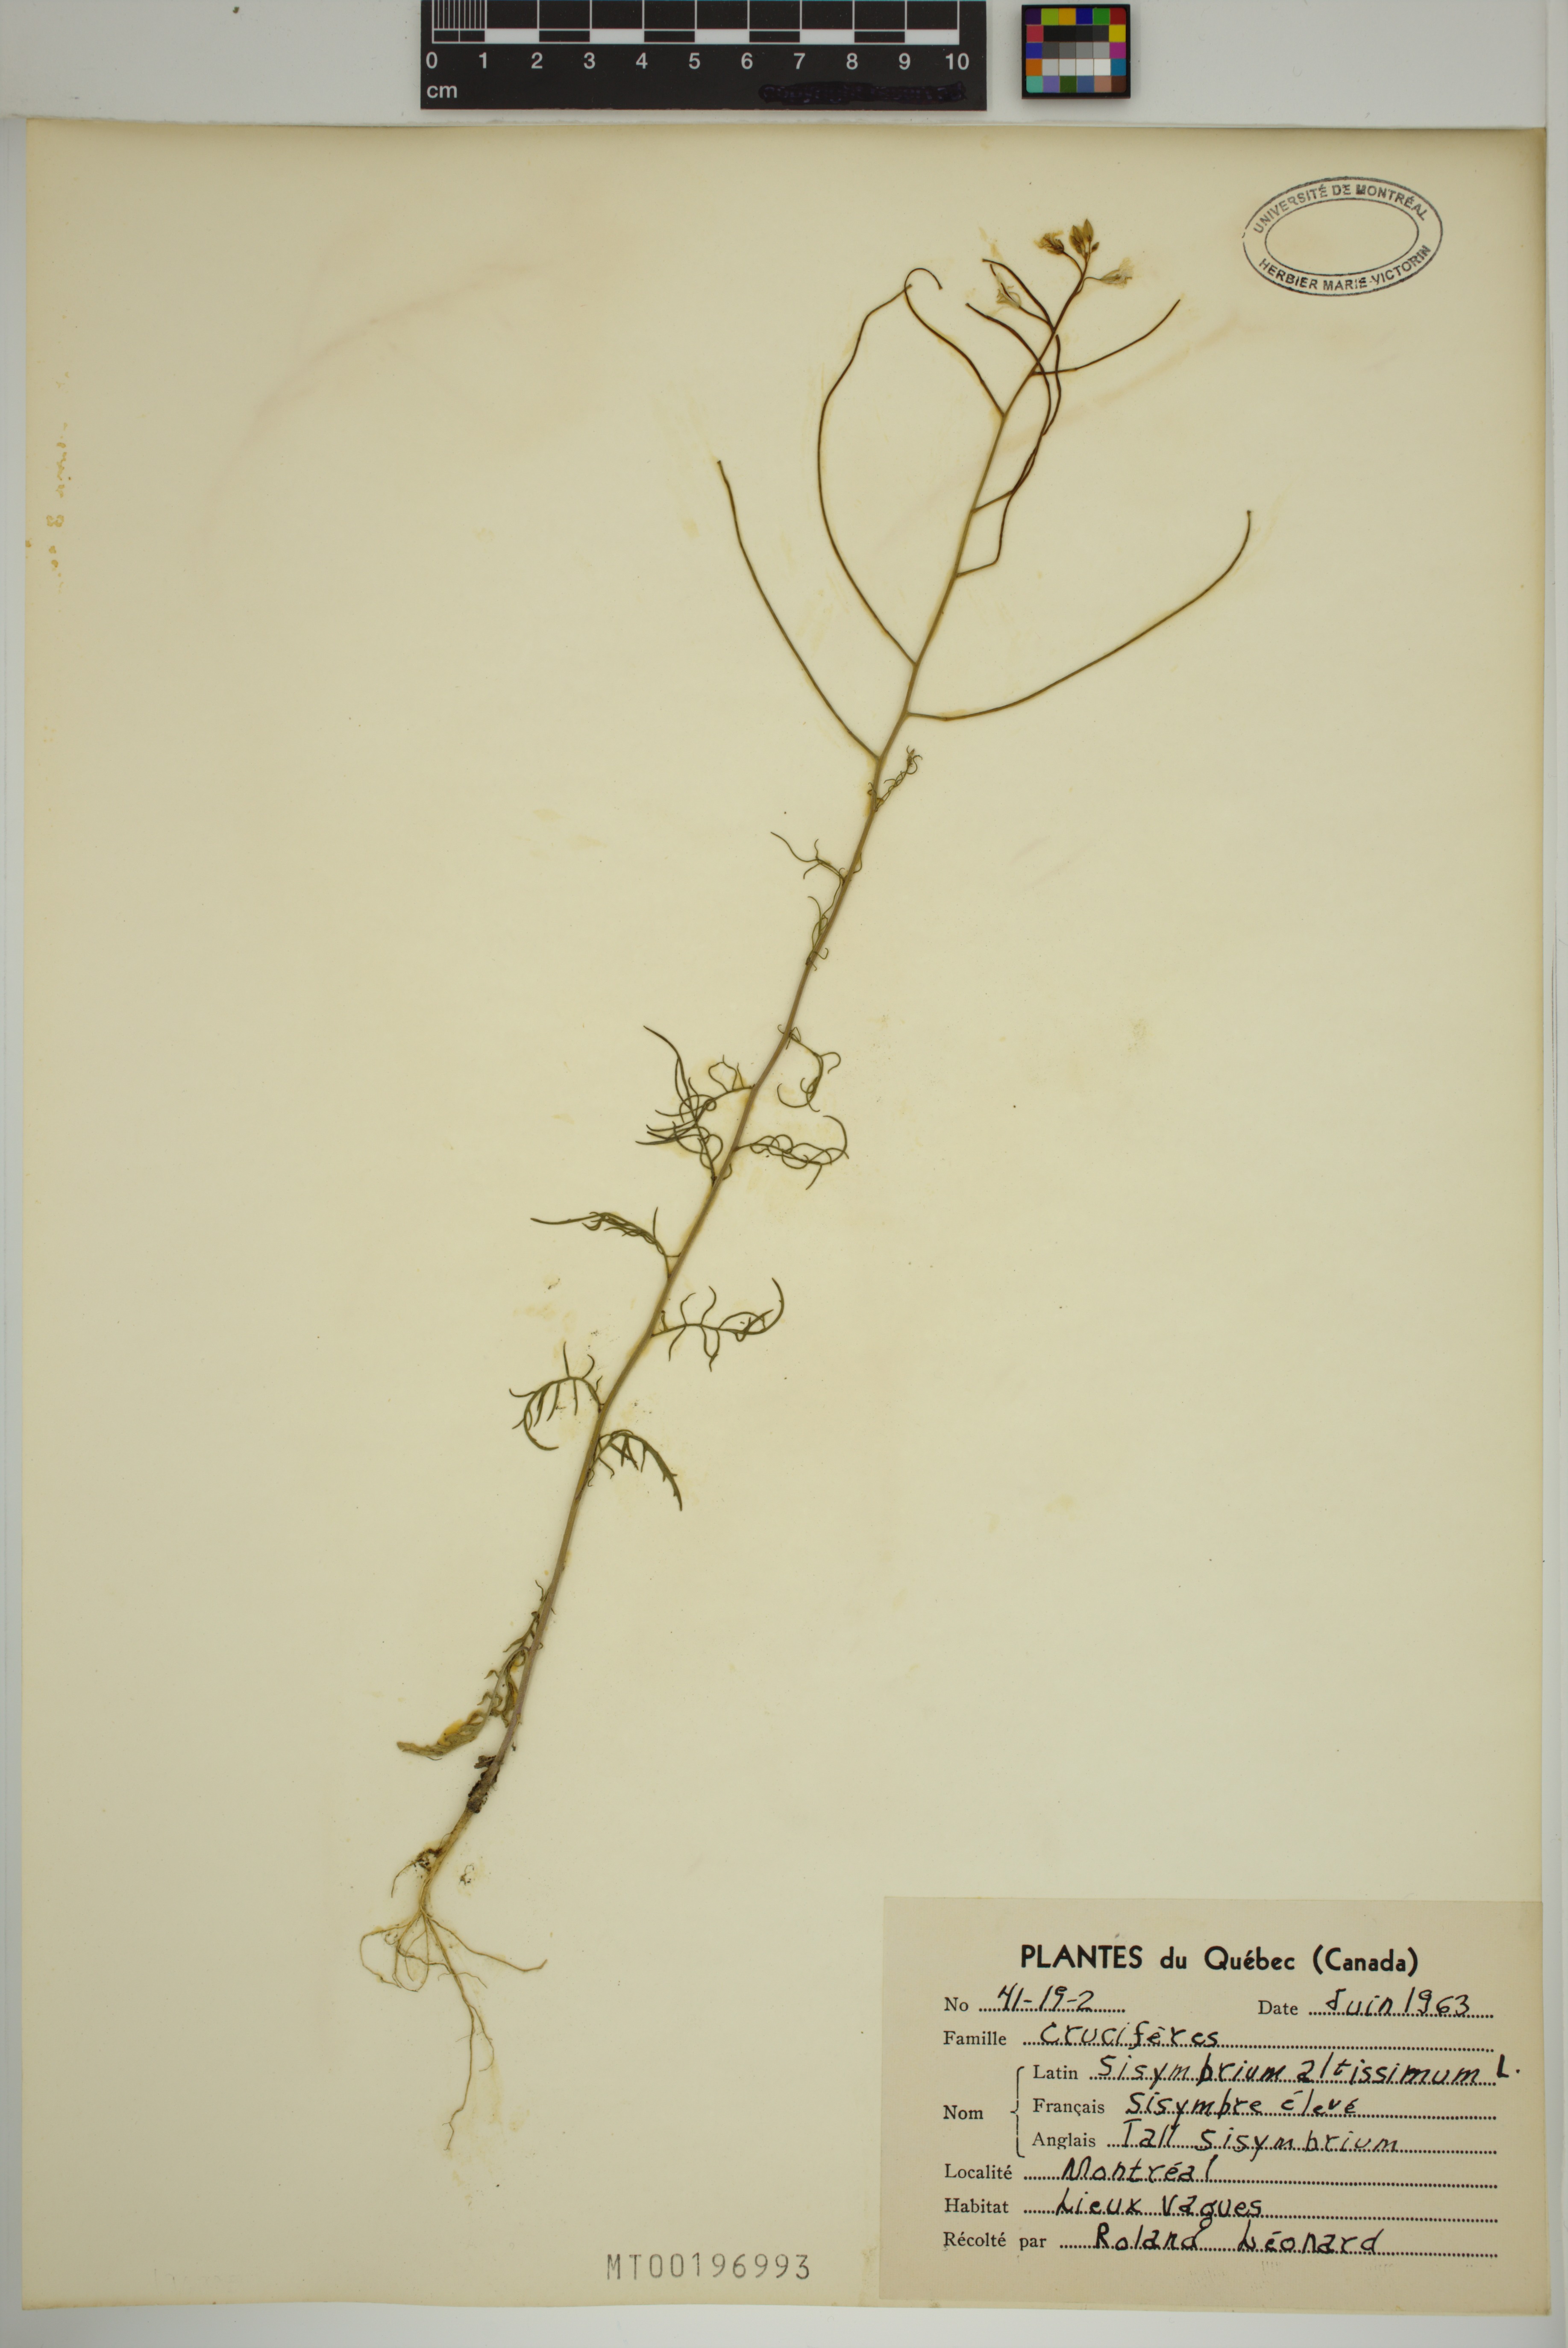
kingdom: Plantae
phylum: Tracheophyta
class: Magnoliopsida
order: Brassicales
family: Brassicaceae
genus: Sisymbrium
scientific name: Sisymbrium altissimum
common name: Tall rocket
